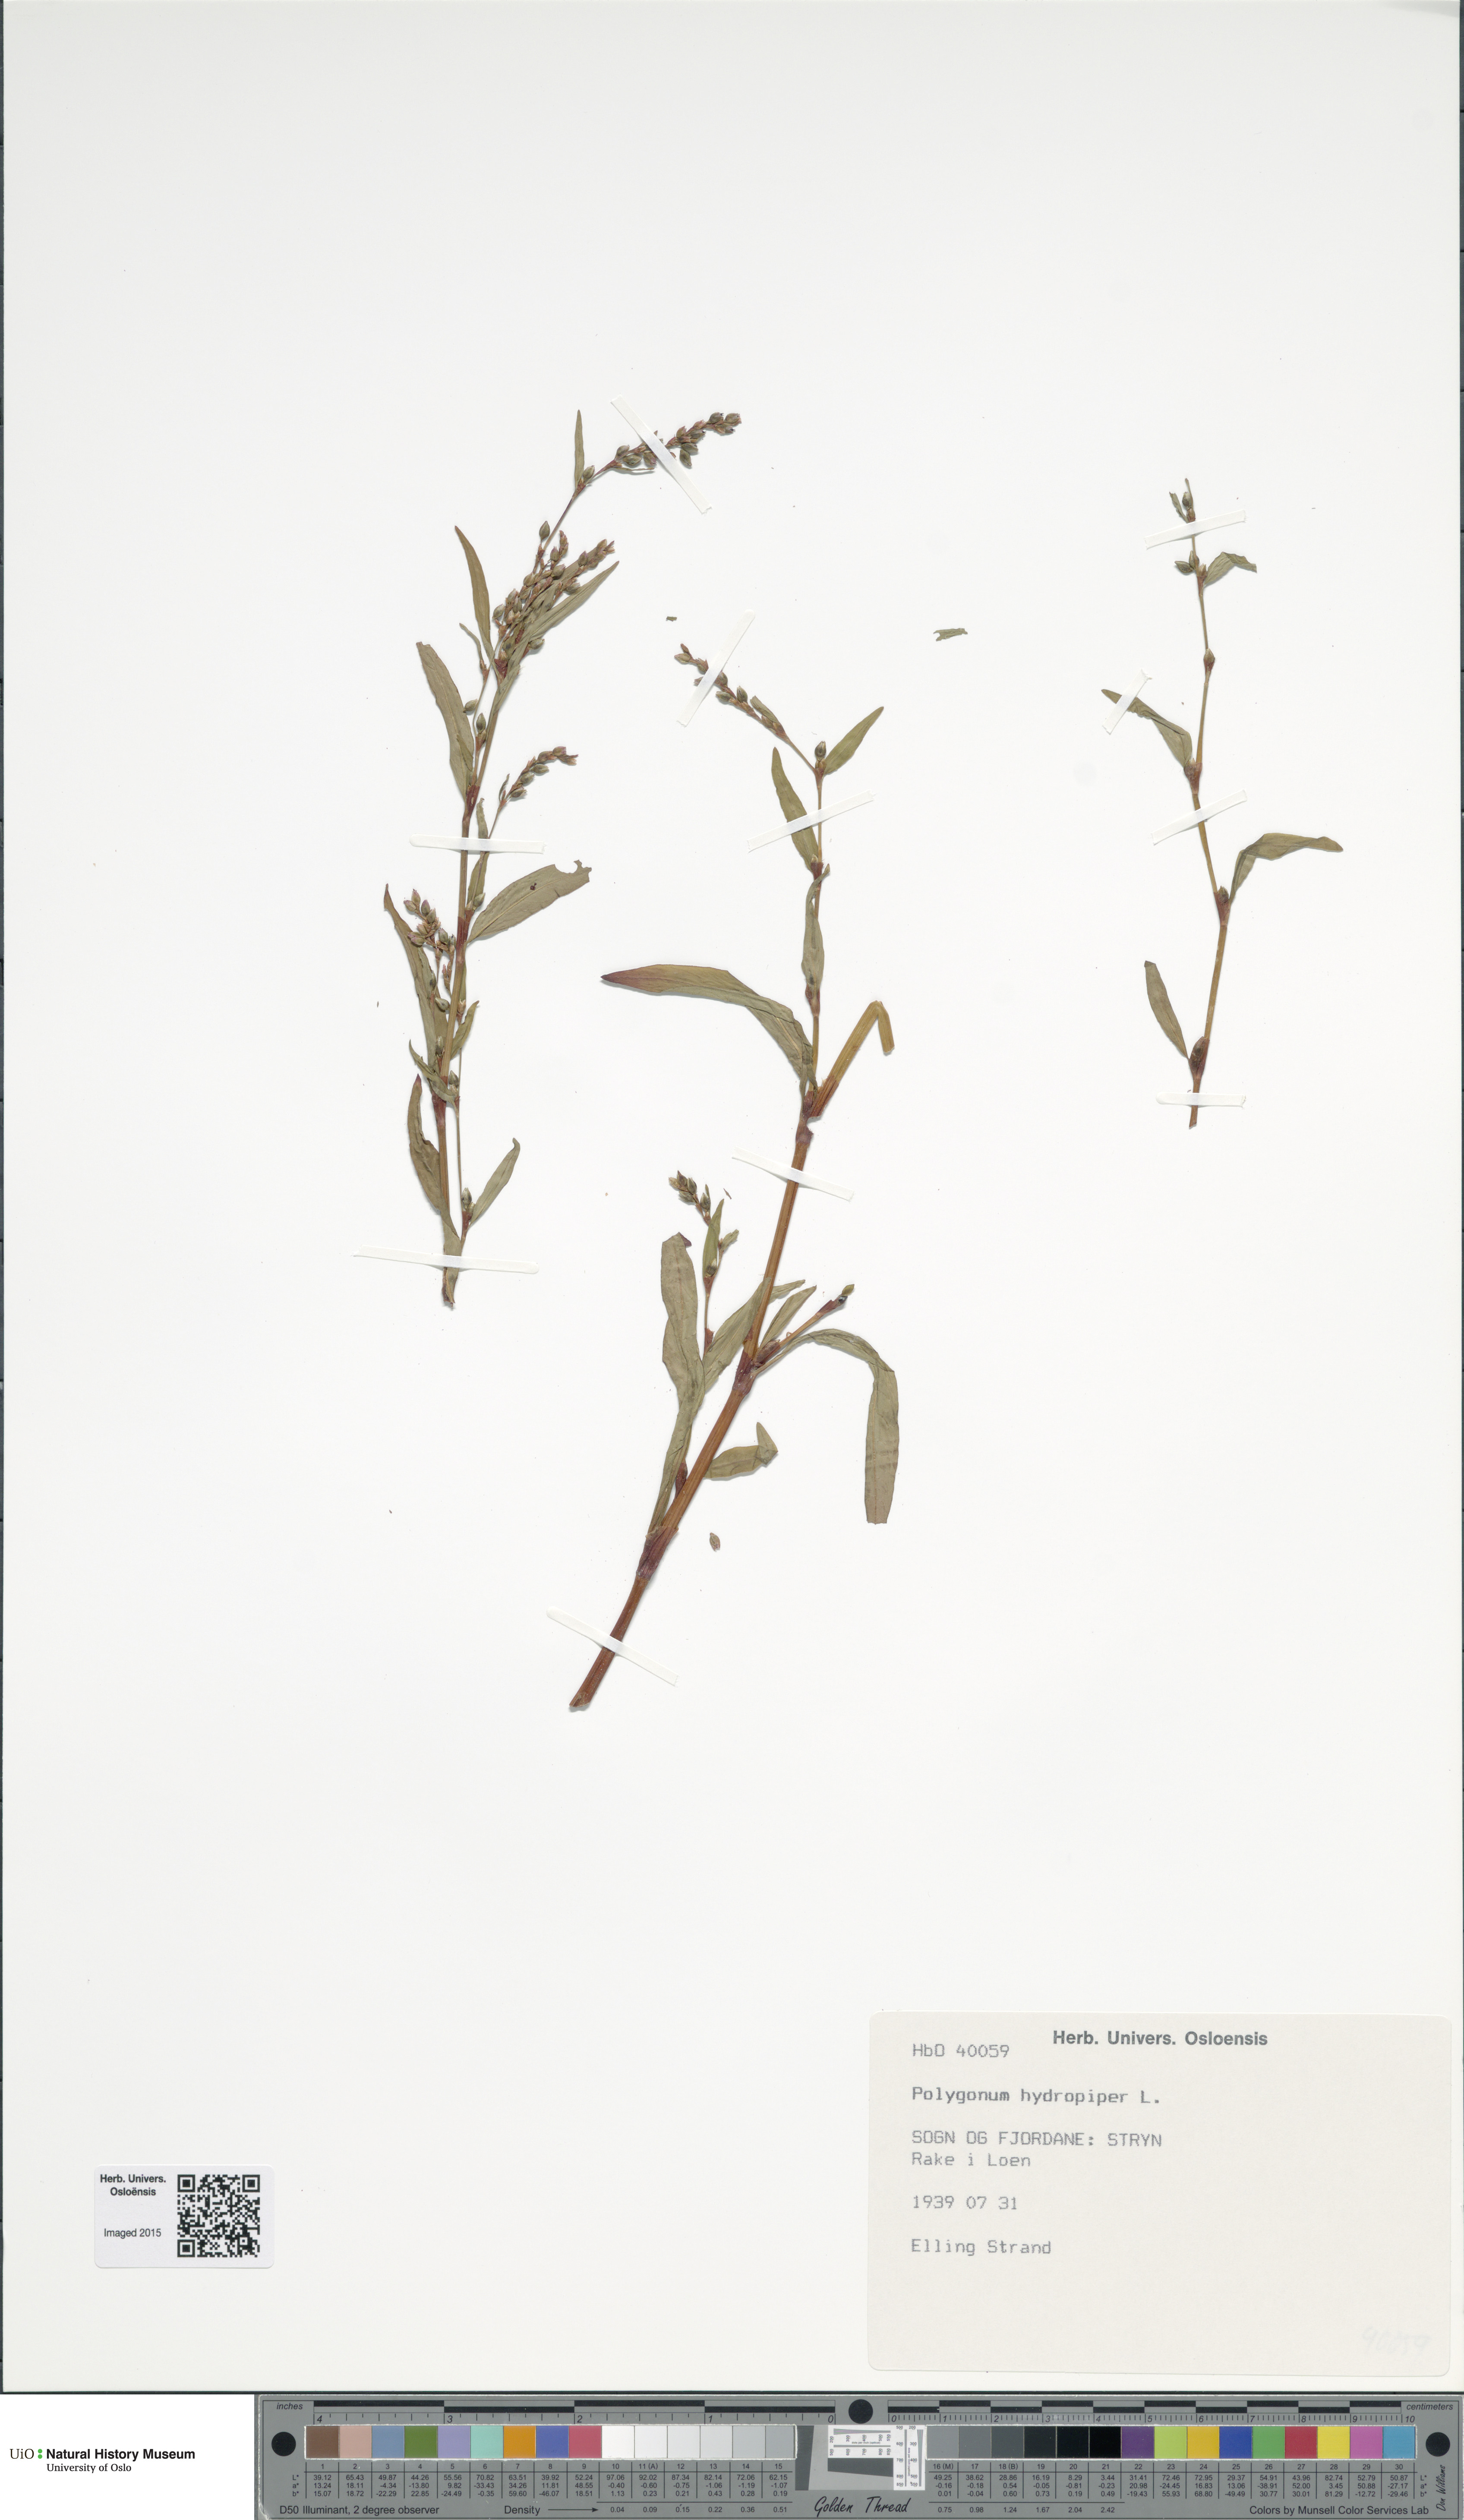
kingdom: Plantae
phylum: Tracheophyta
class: Magnoliopsida
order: Caryophyllales
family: Polygonaceae
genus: Persicaria
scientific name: Persicaria hydropiper
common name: Water-pepper
